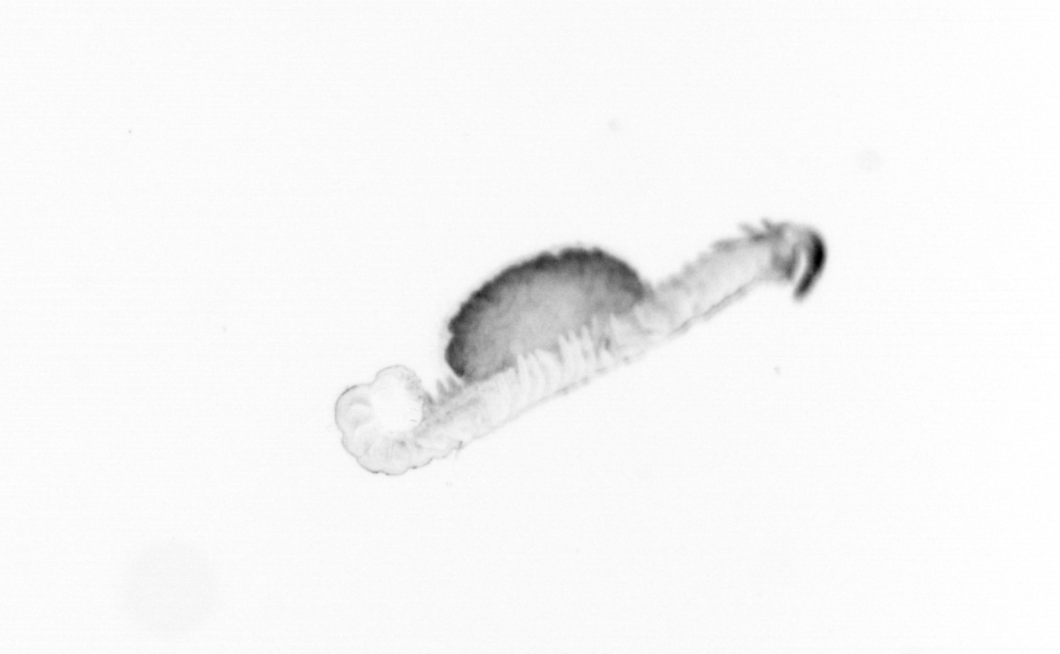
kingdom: Animalia
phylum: Annelida
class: Polychaeta
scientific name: Polychaeta
